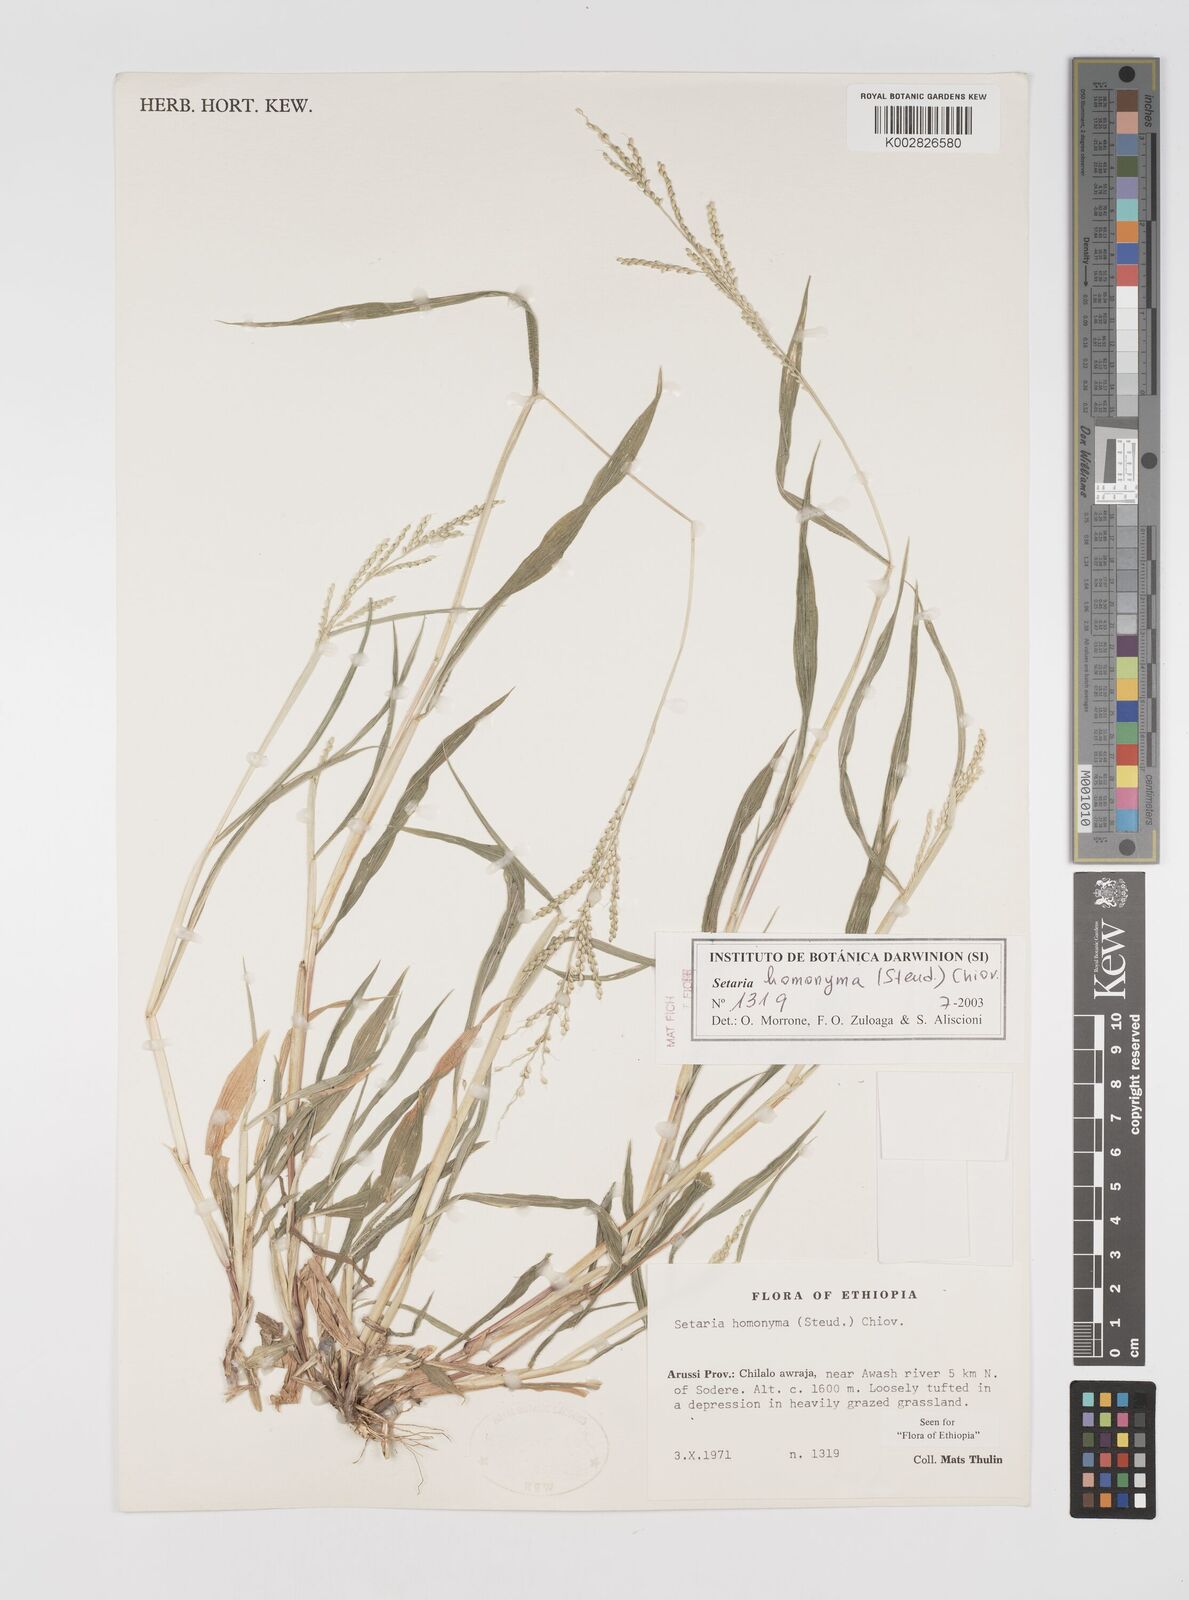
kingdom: Plantae
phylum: Tracheophyta
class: Liliopsida
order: Poales
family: Poaceae
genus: Setaria
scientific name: Setaria homonyma
